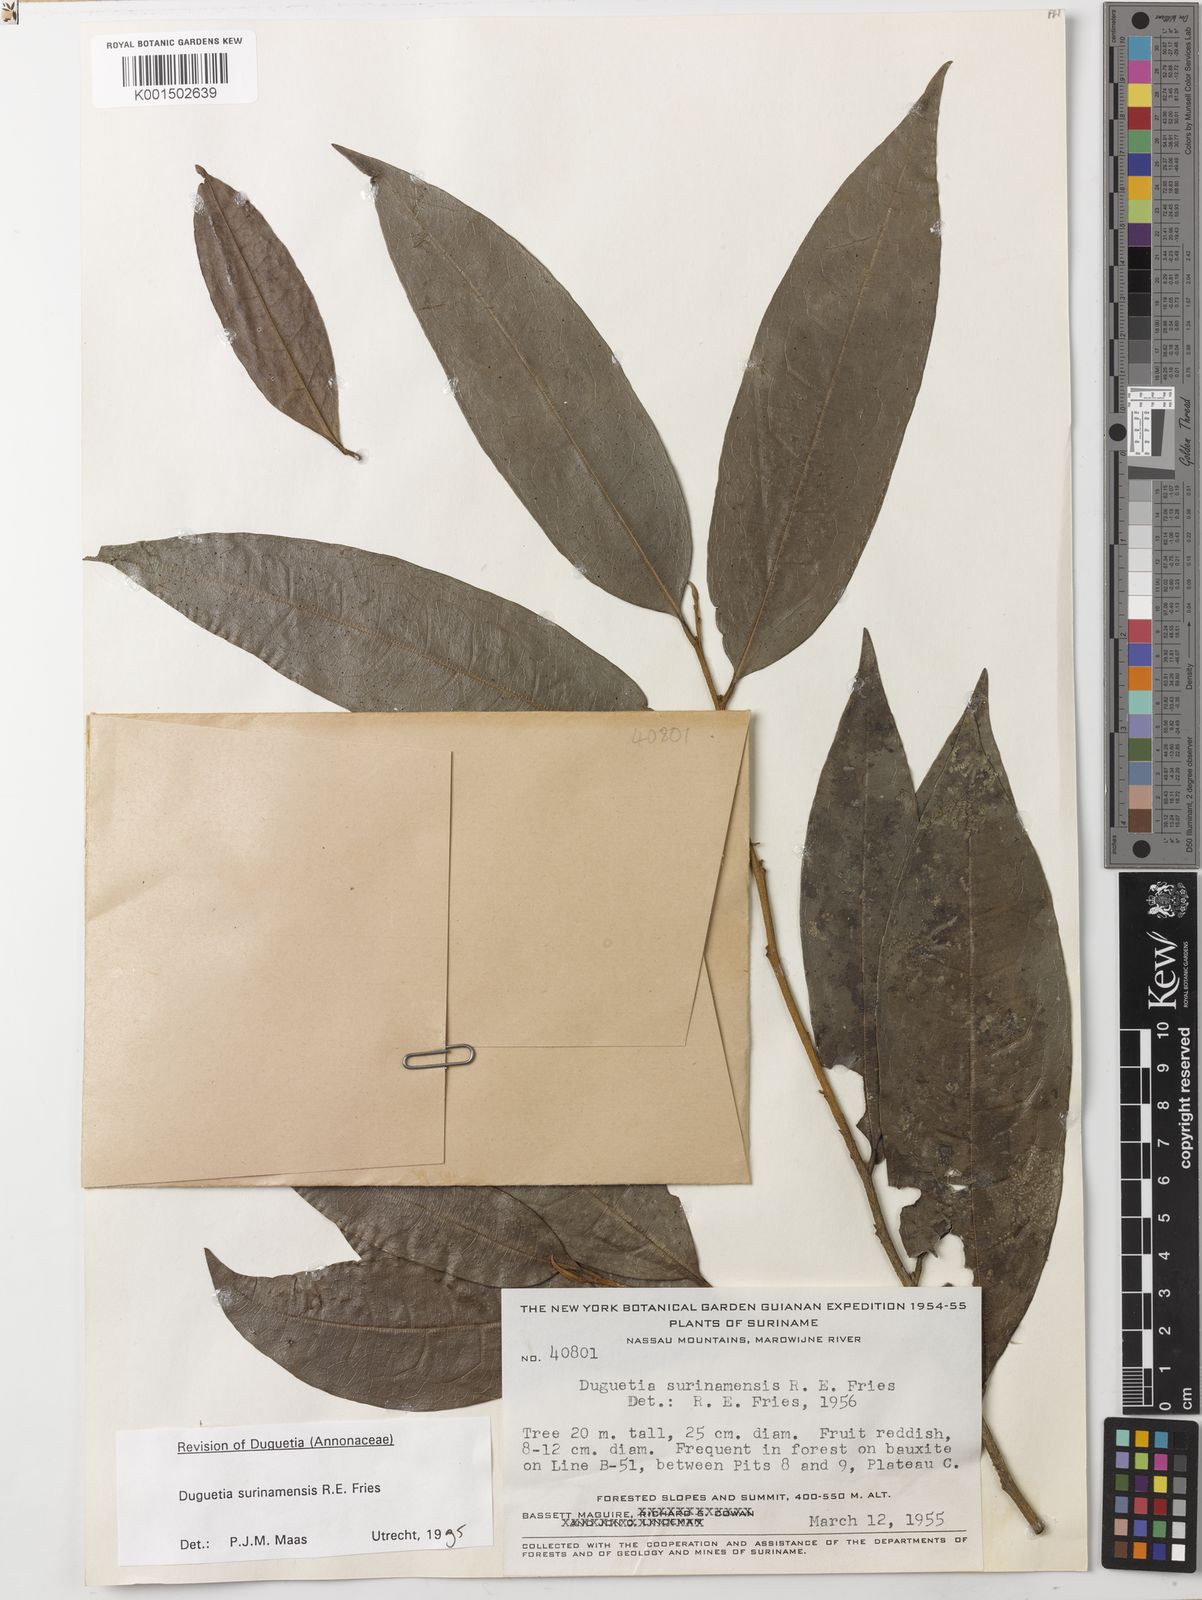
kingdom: Plantae
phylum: Tracheophyta
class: Magnoliopsida
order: Magnoliales
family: Annonaceae
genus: Duguetia
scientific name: Duguetia surinamensis
